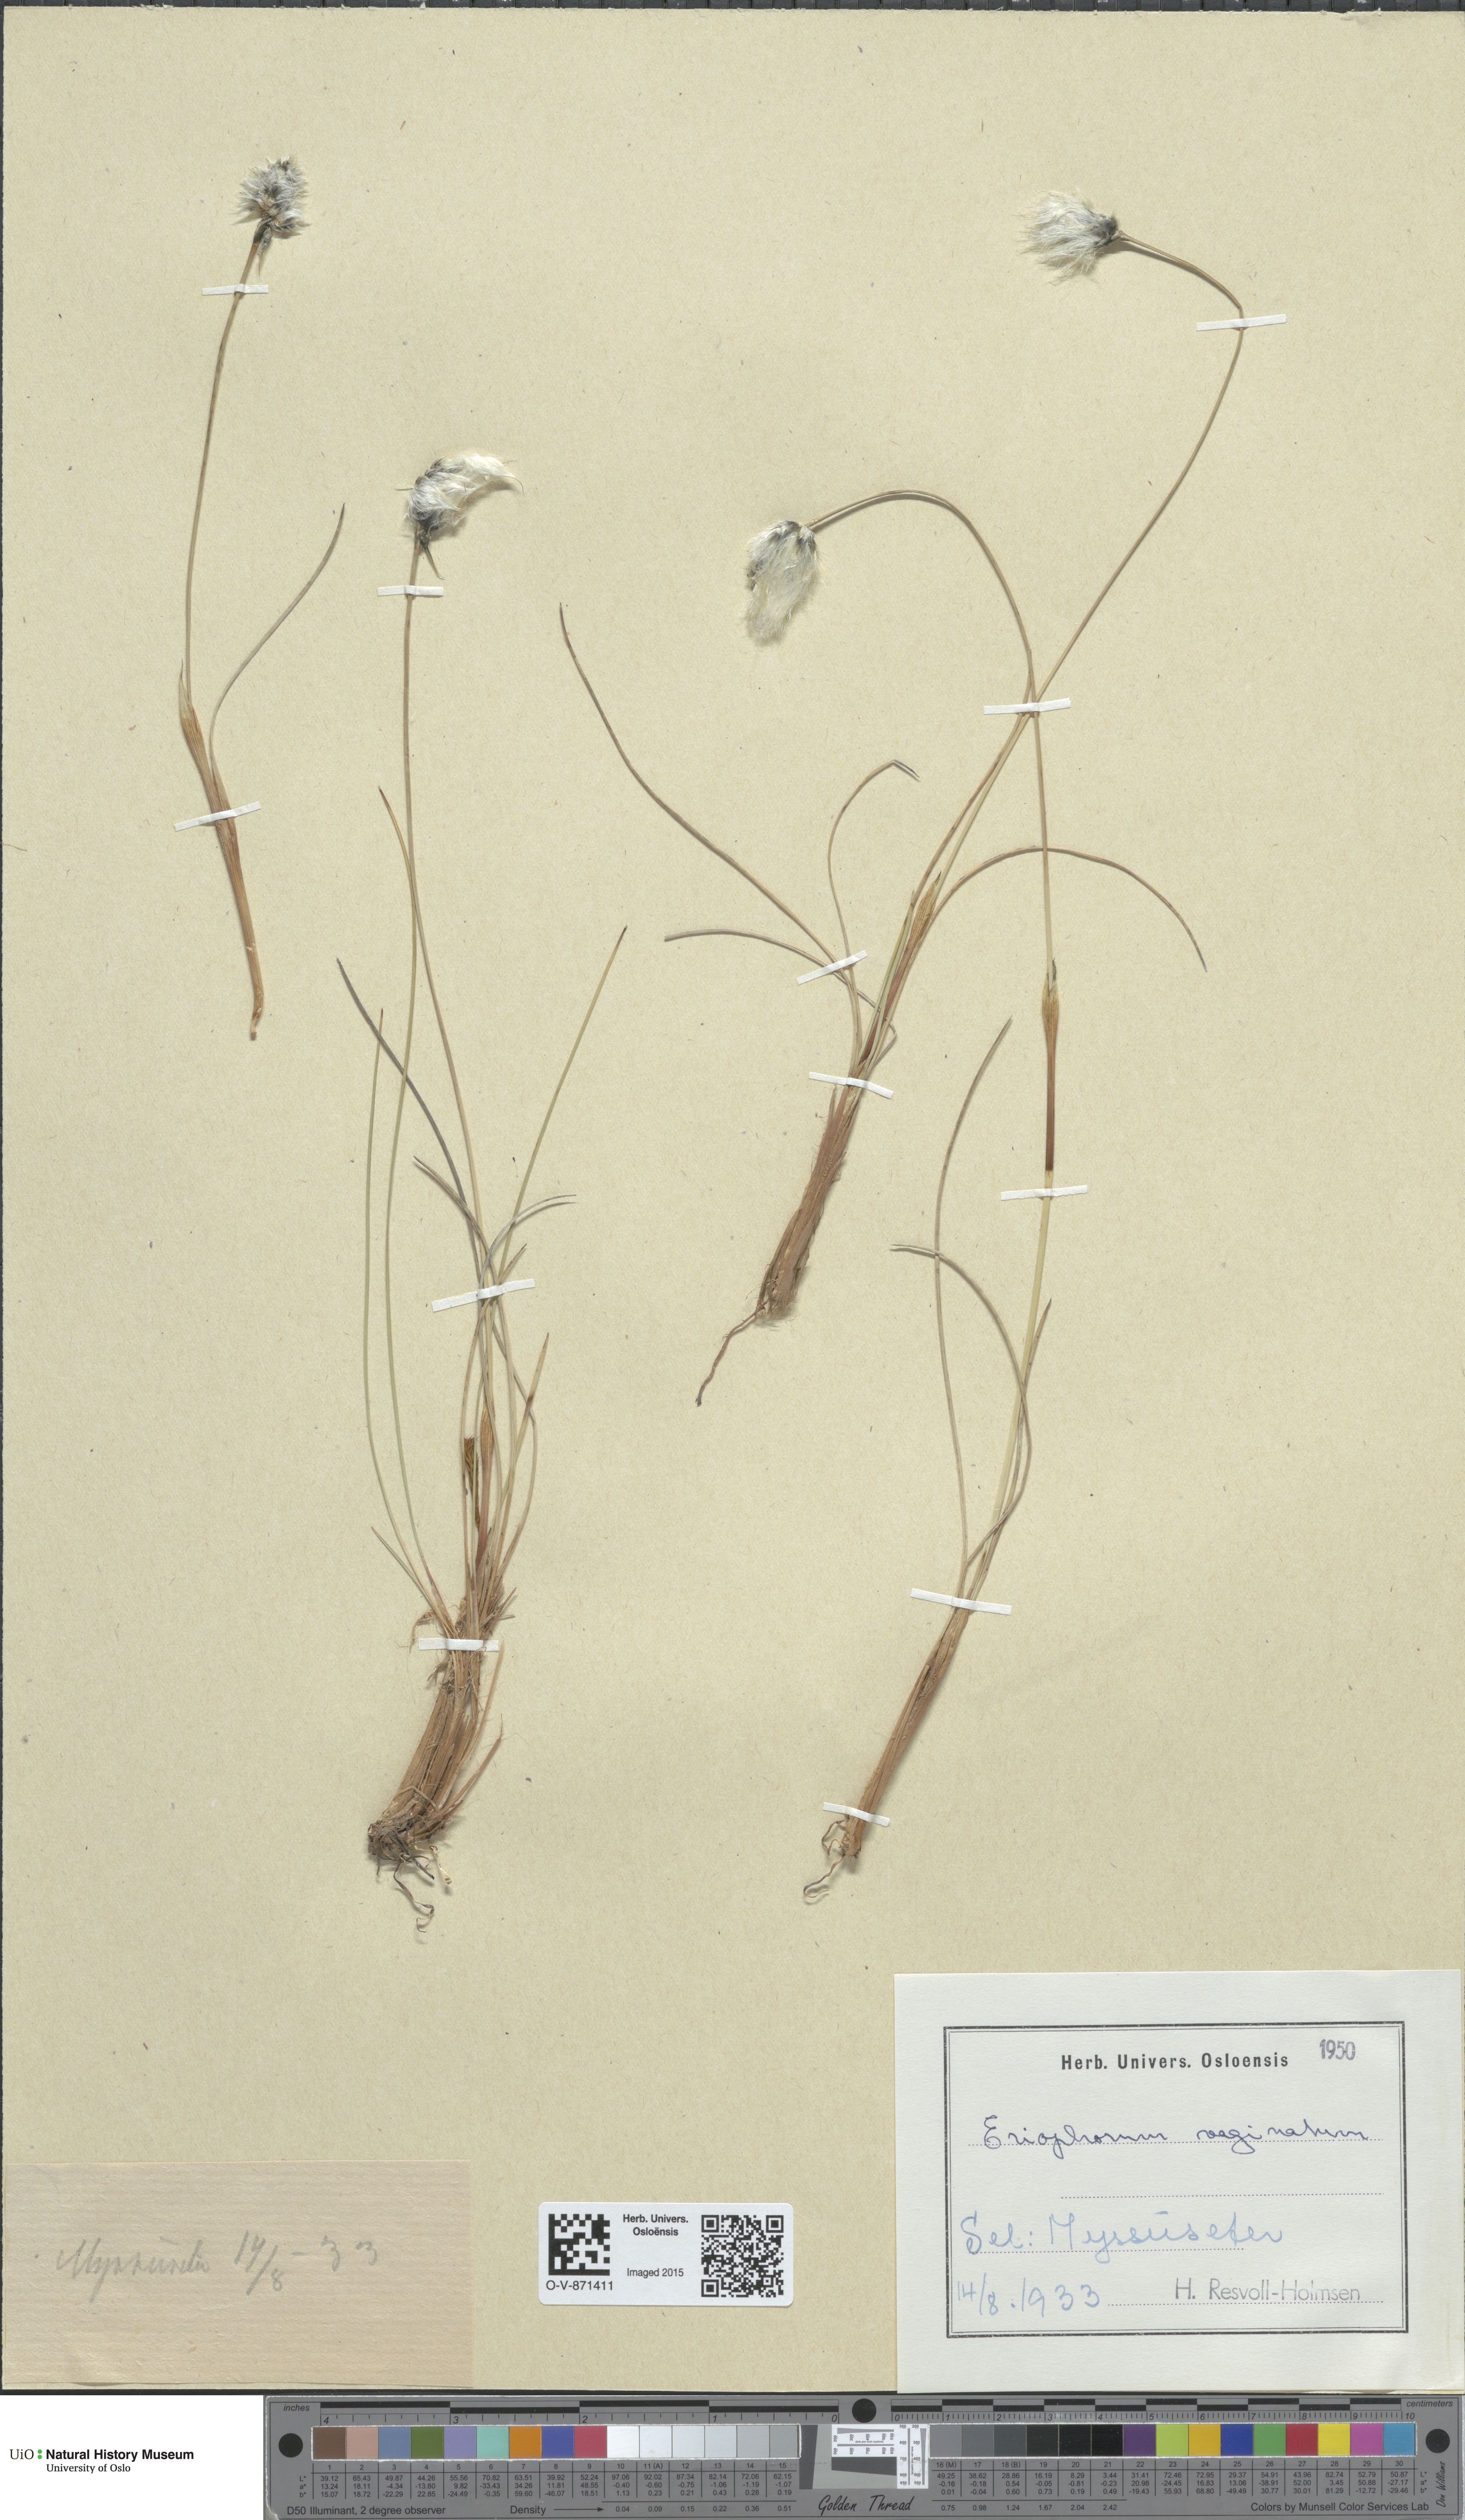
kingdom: Plantae
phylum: Tracheophyta
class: Liliopsida
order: Poales
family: Cyperaceae
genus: Eriophorum
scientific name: Eriophorum vaginatum
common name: Hare's-tail cottongrass
